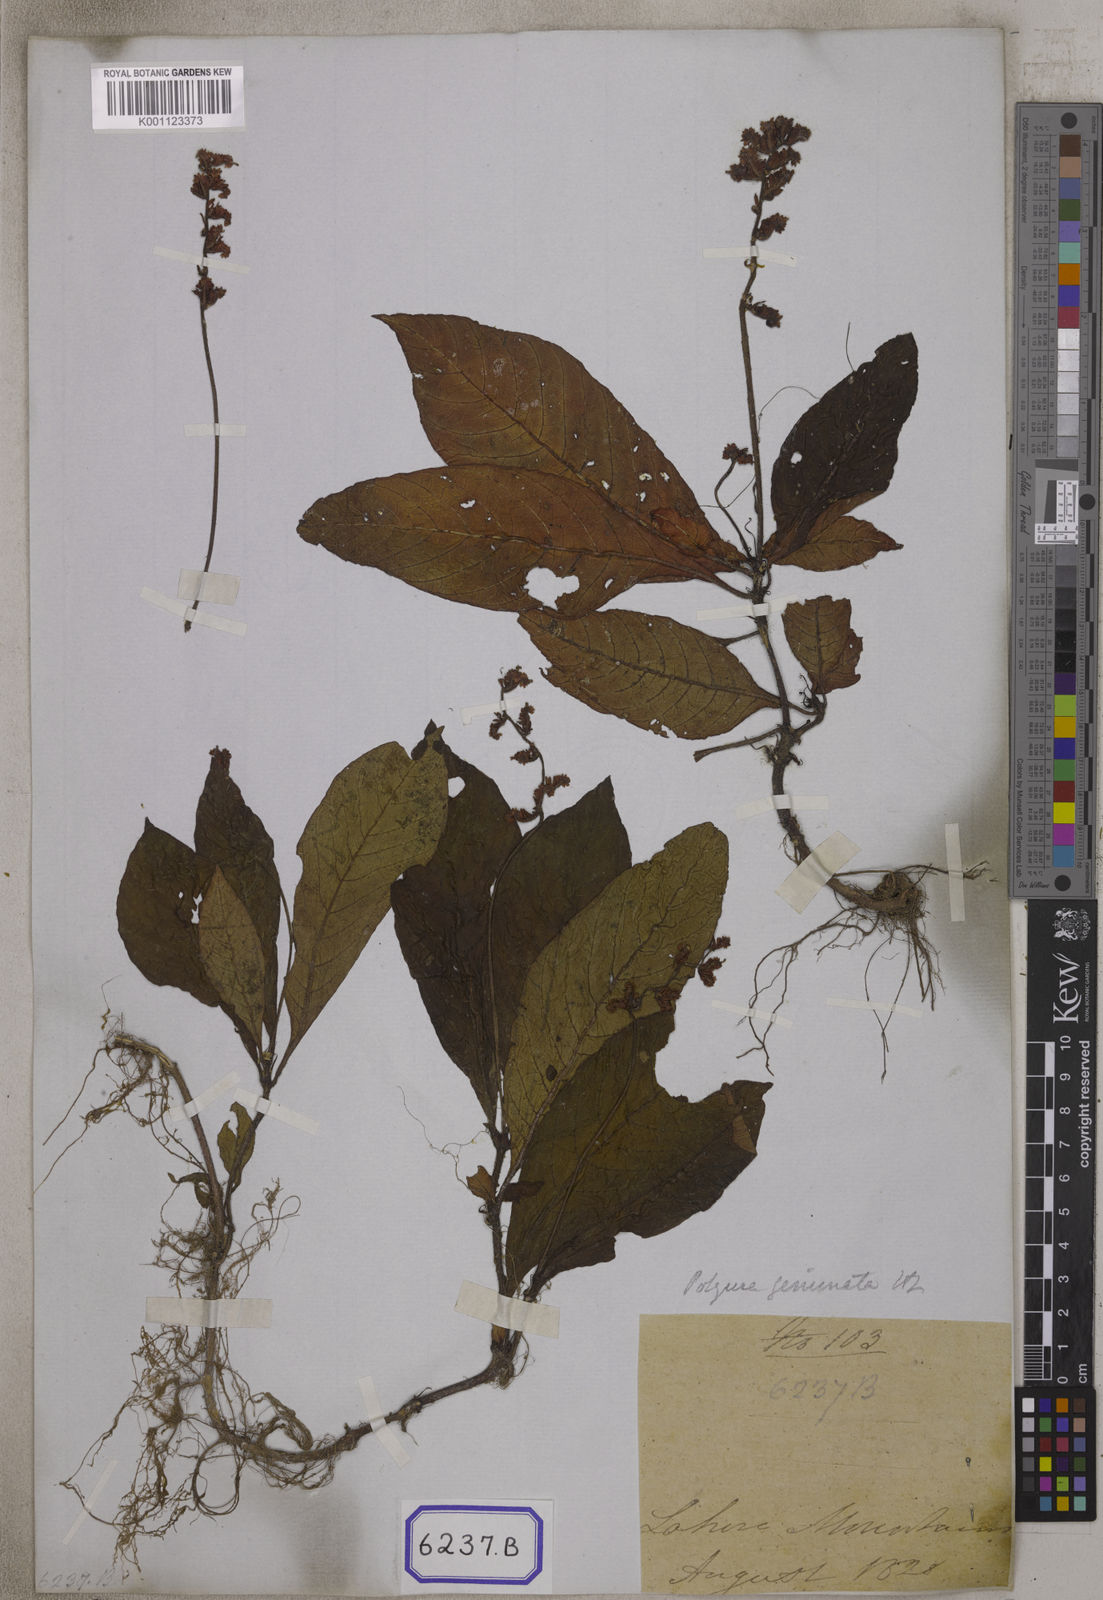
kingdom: Plantae
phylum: Tracheophyta
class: Magnoliopsida
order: Gentianales
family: Rubiaceae
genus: Ophiorrhiza
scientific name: Ophiorrhiza
